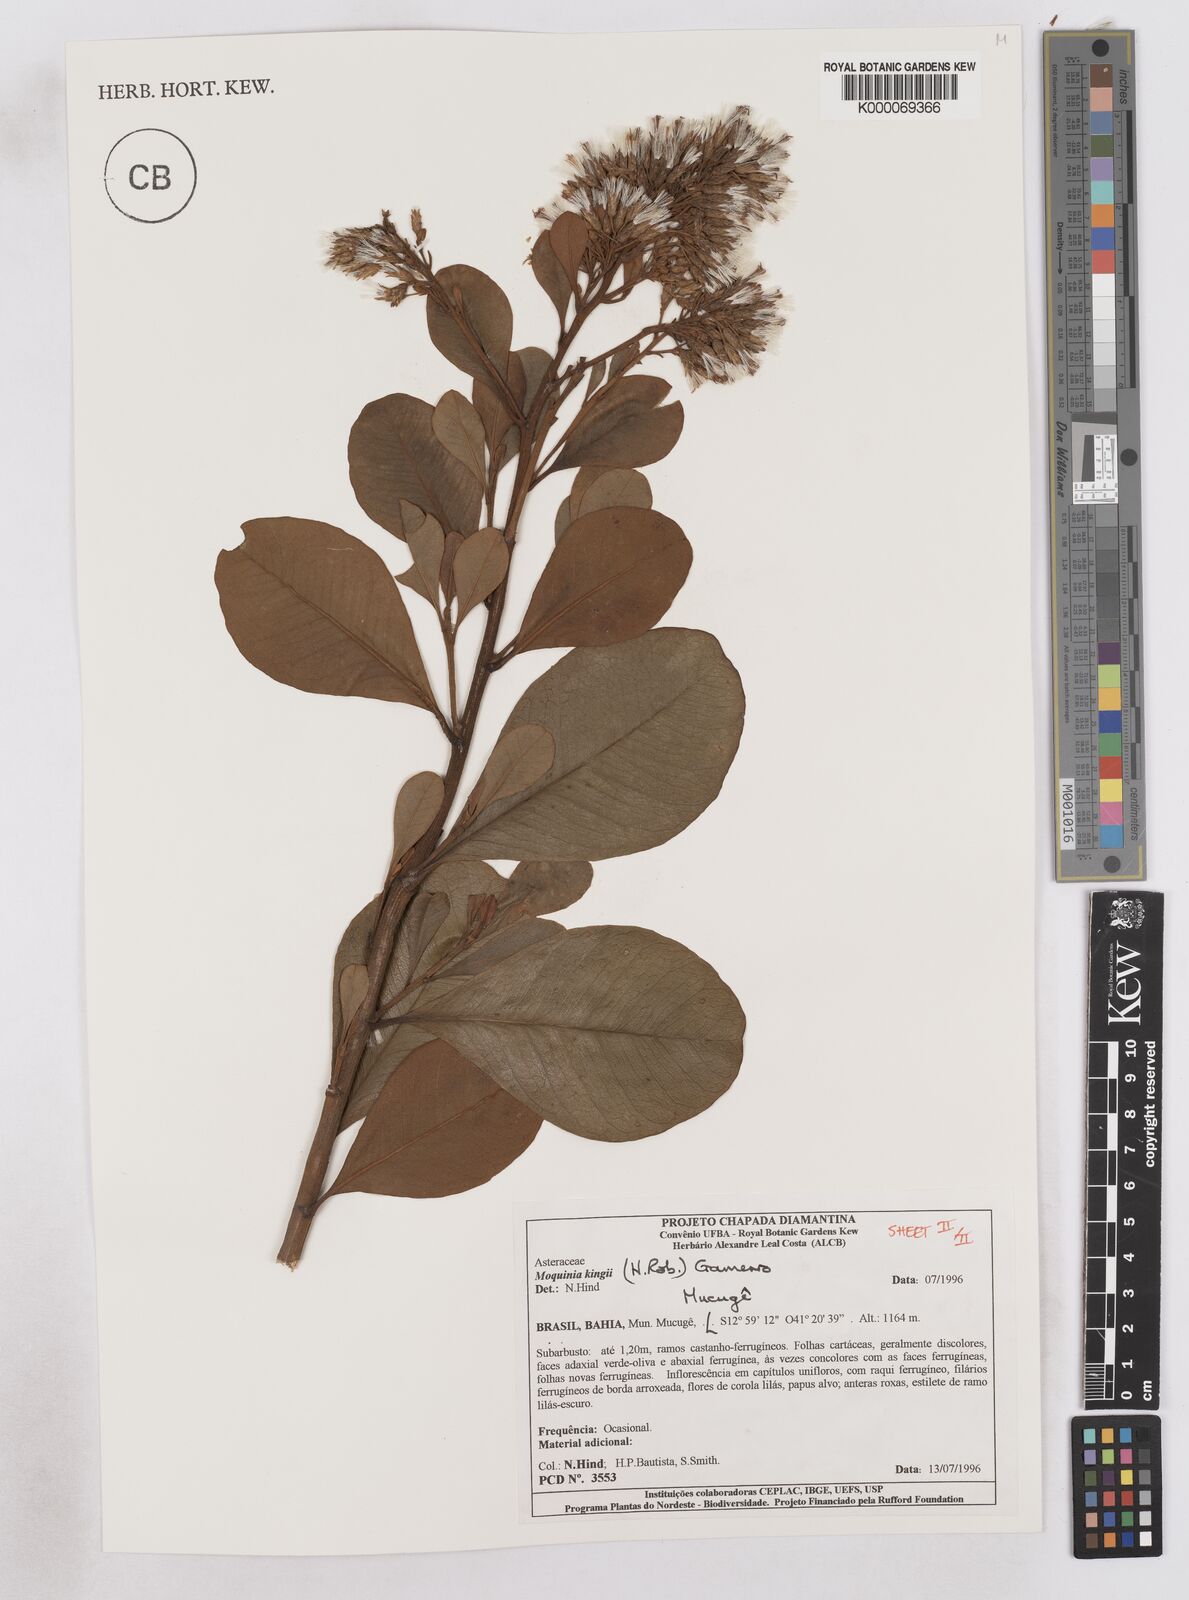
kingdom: Plantae
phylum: Tracheophyta
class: Magnoliopsida
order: Asterales
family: Asteraceae
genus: Pseudostifftia
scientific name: Pseudostifftia kingii
